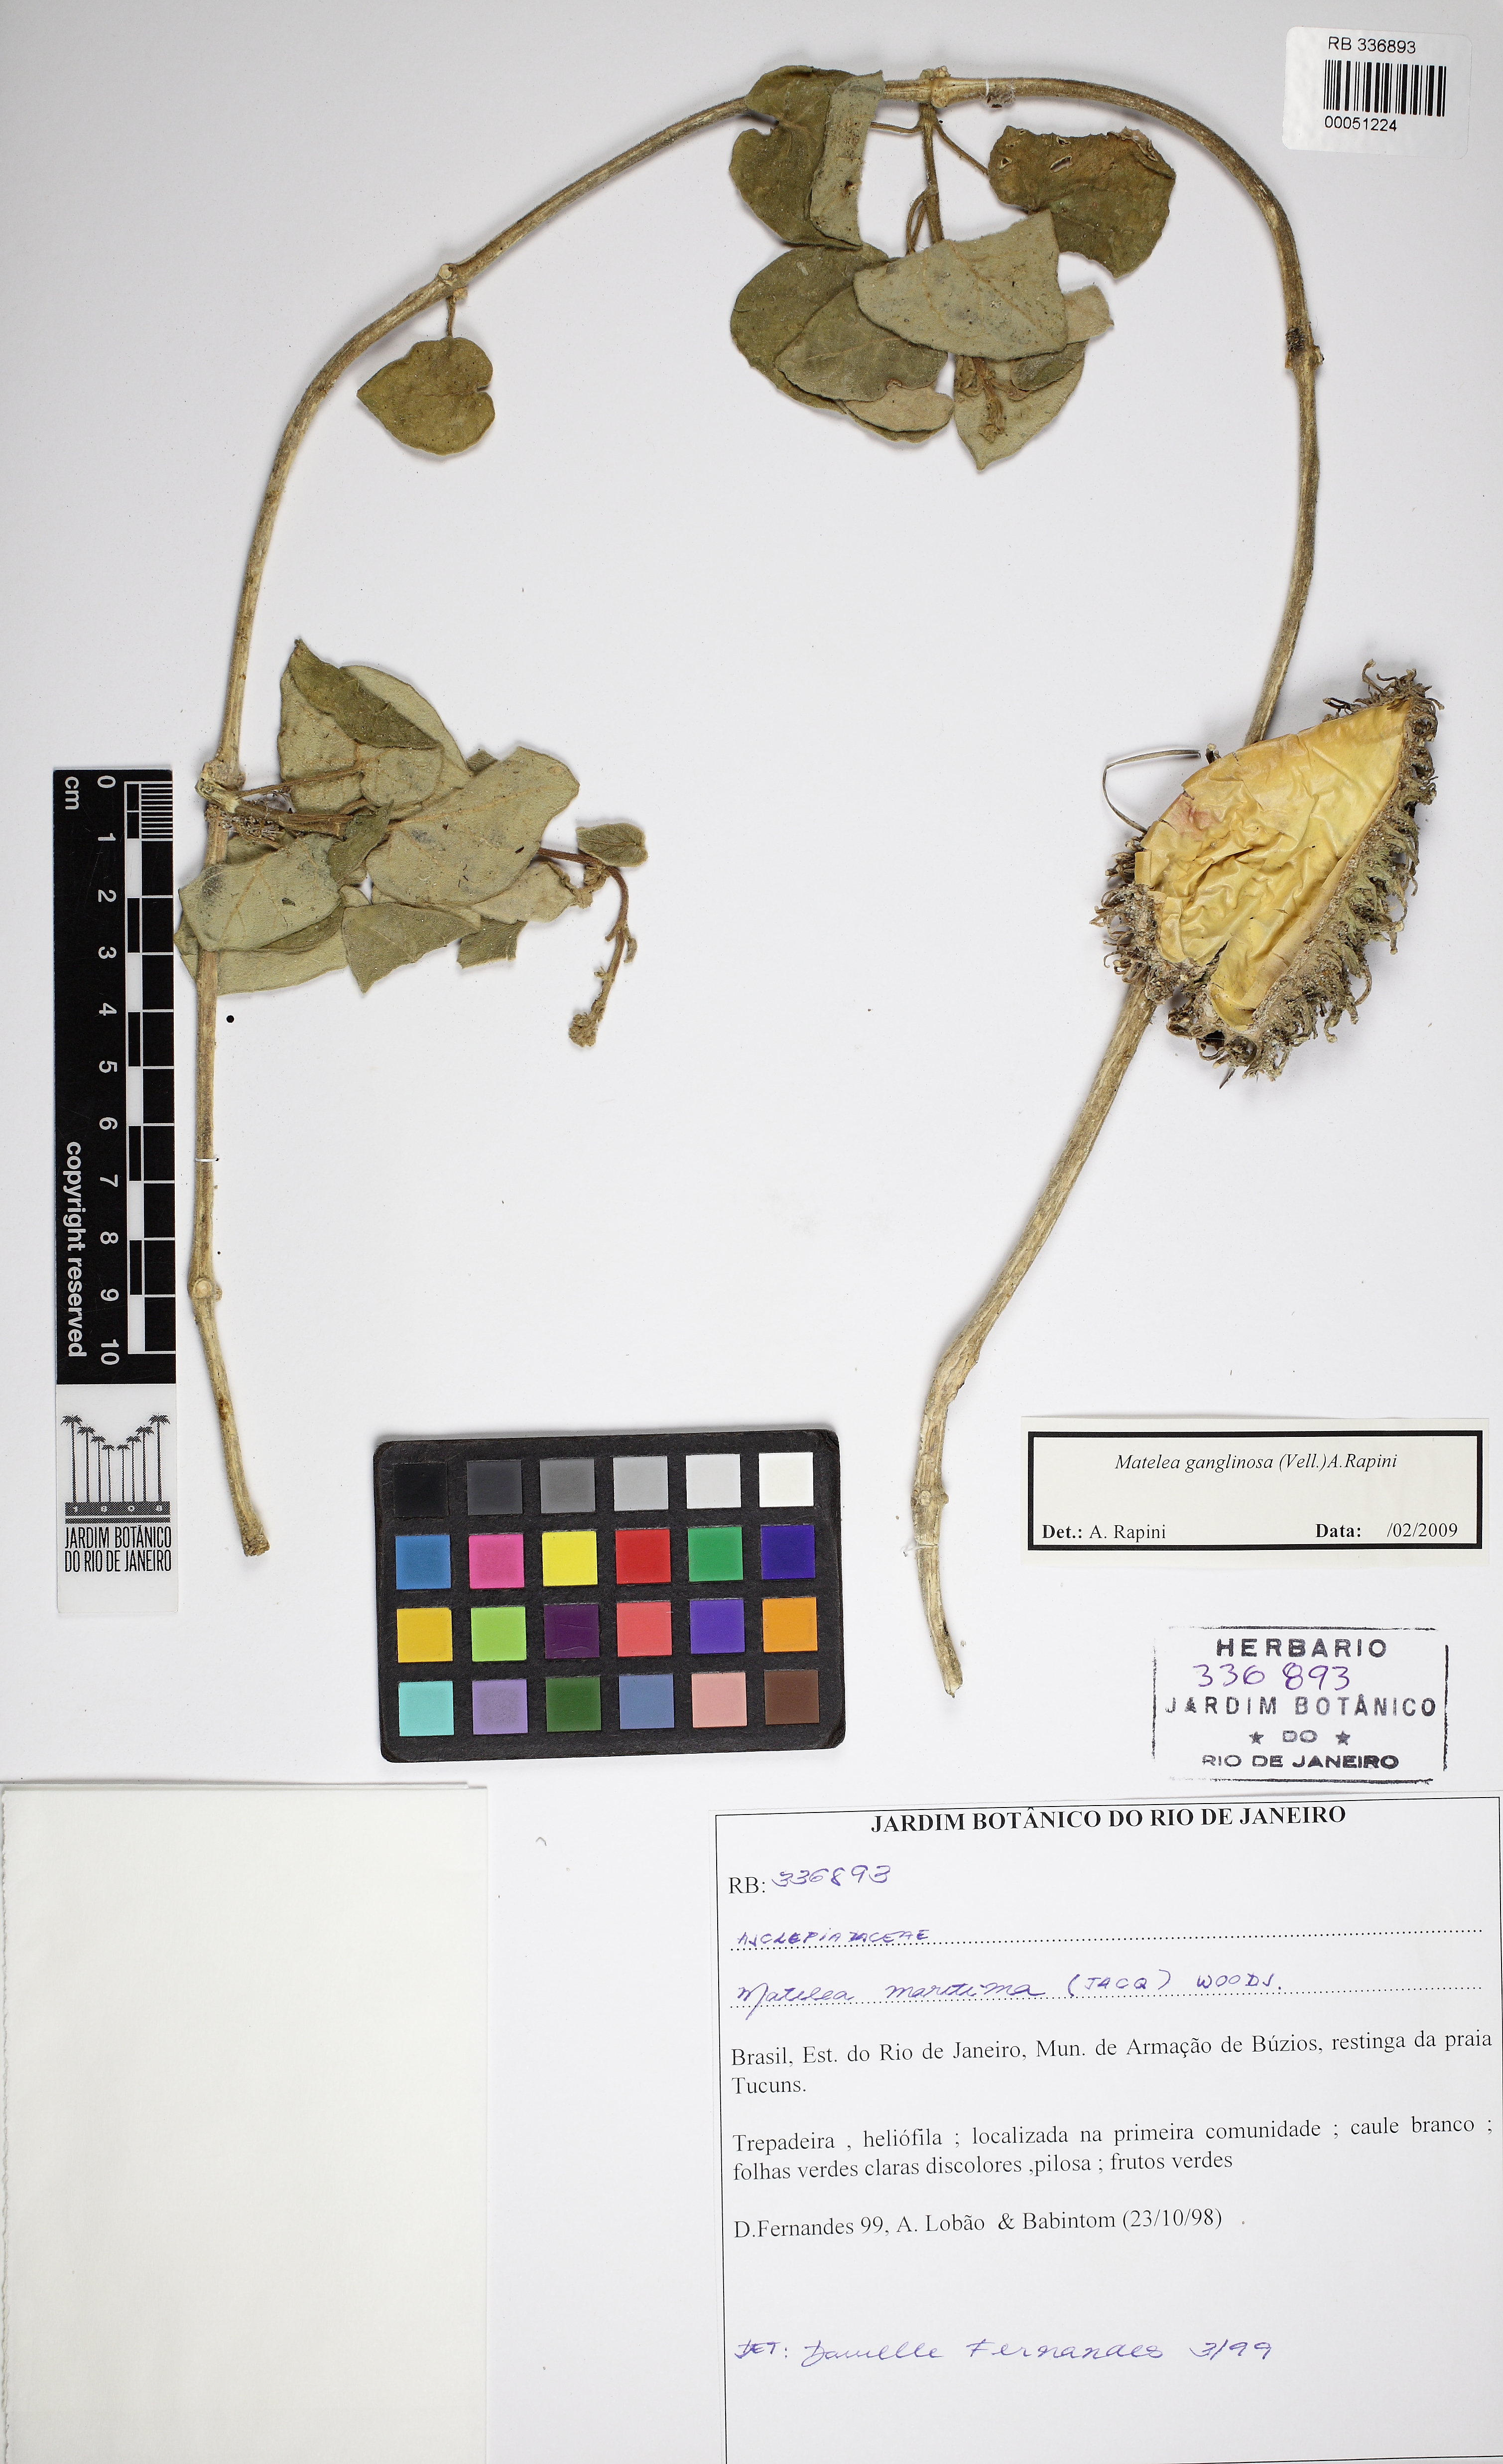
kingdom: Plantae
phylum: Tracheophyta
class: Magnoliopsida
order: Gentianales
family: Apocynaceae
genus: Ibatia
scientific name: Ibatia ganglinosa
